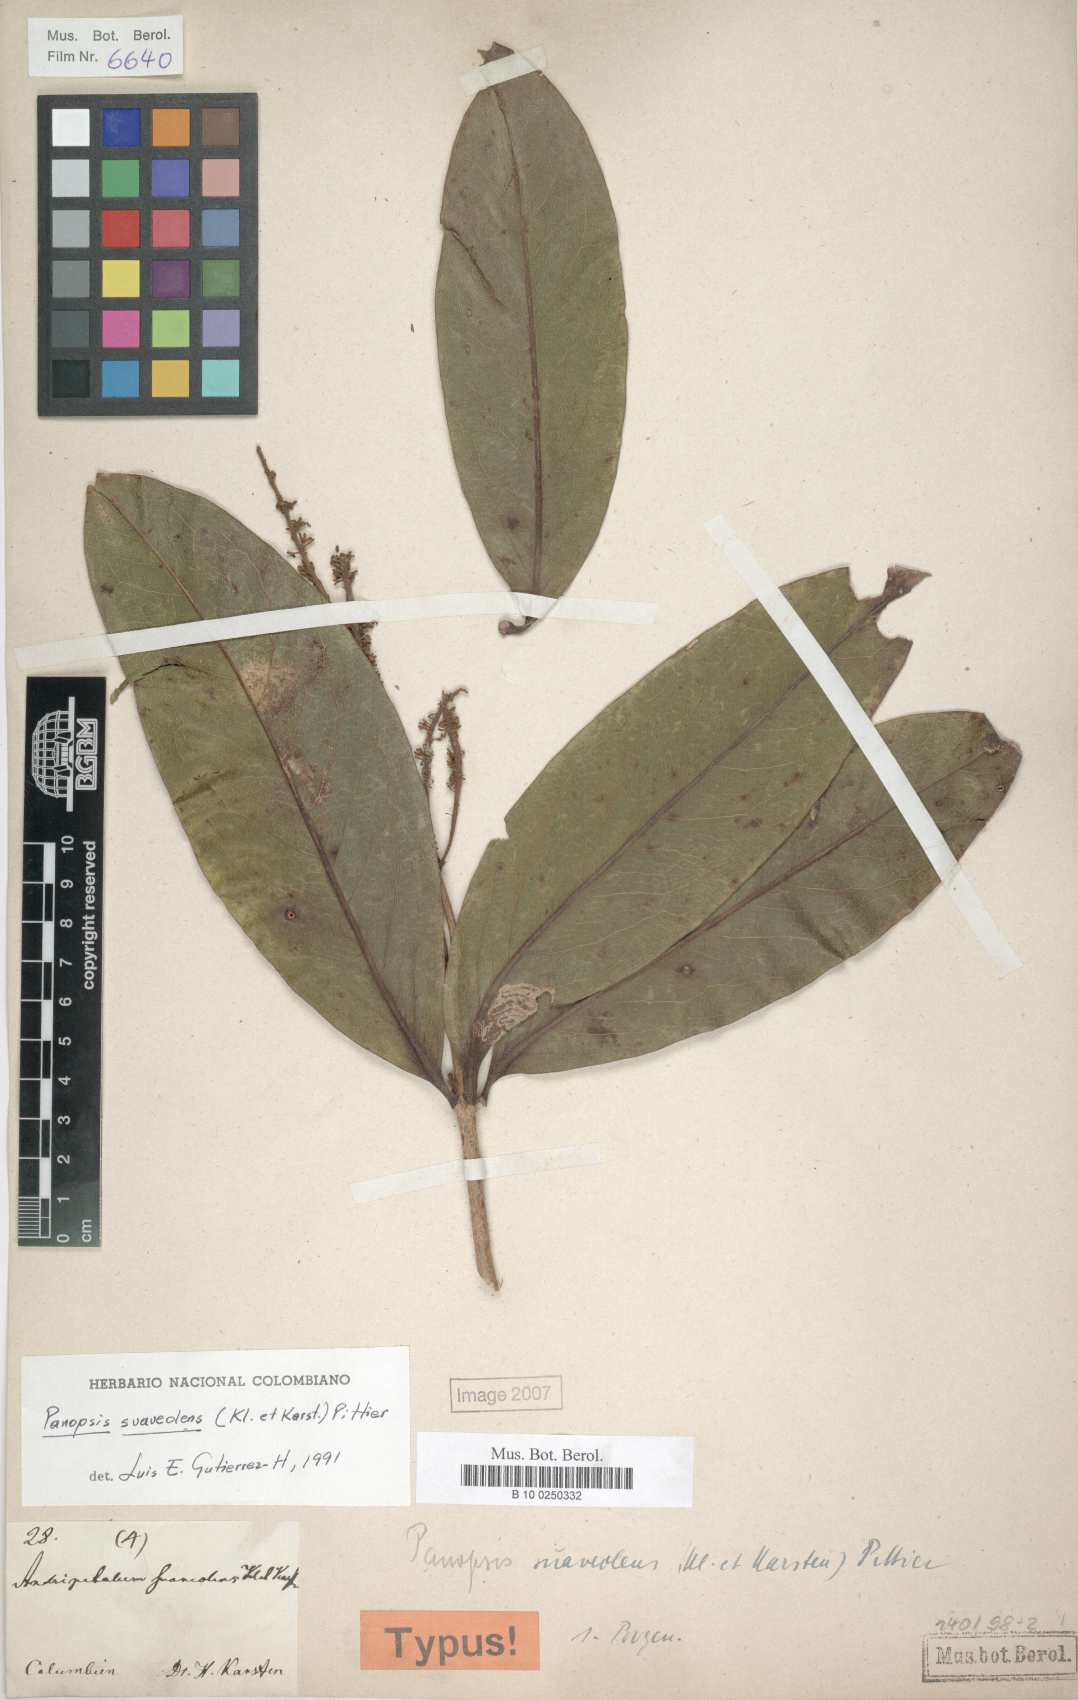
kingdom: Plantae
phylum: Tracheophyta
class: Magnoliopsida
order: Proteales
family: Proteaceae
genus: Panopsis
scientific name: Panopsis suaveolens
